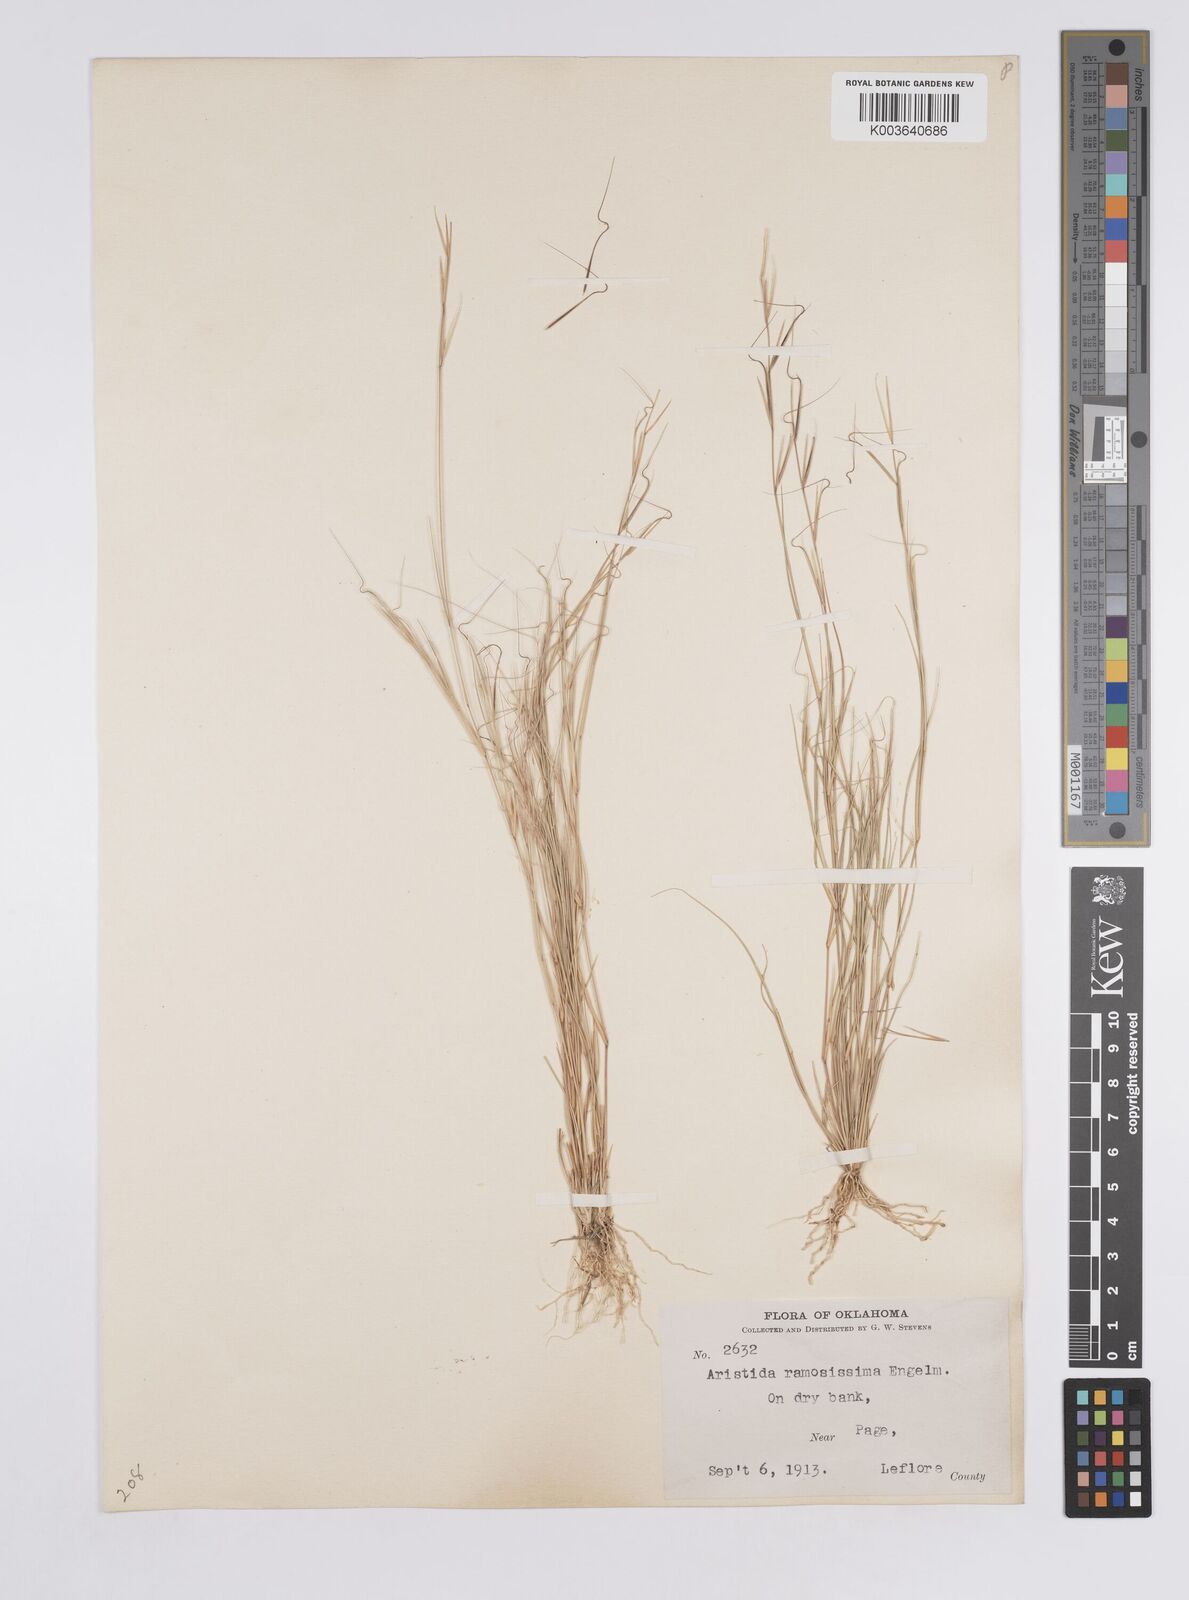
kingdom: Plantae
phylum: Tracheophyta
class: Liliopsida
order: Poales
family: Poaceae
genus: Aristida
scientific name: Aristida ramosissima
